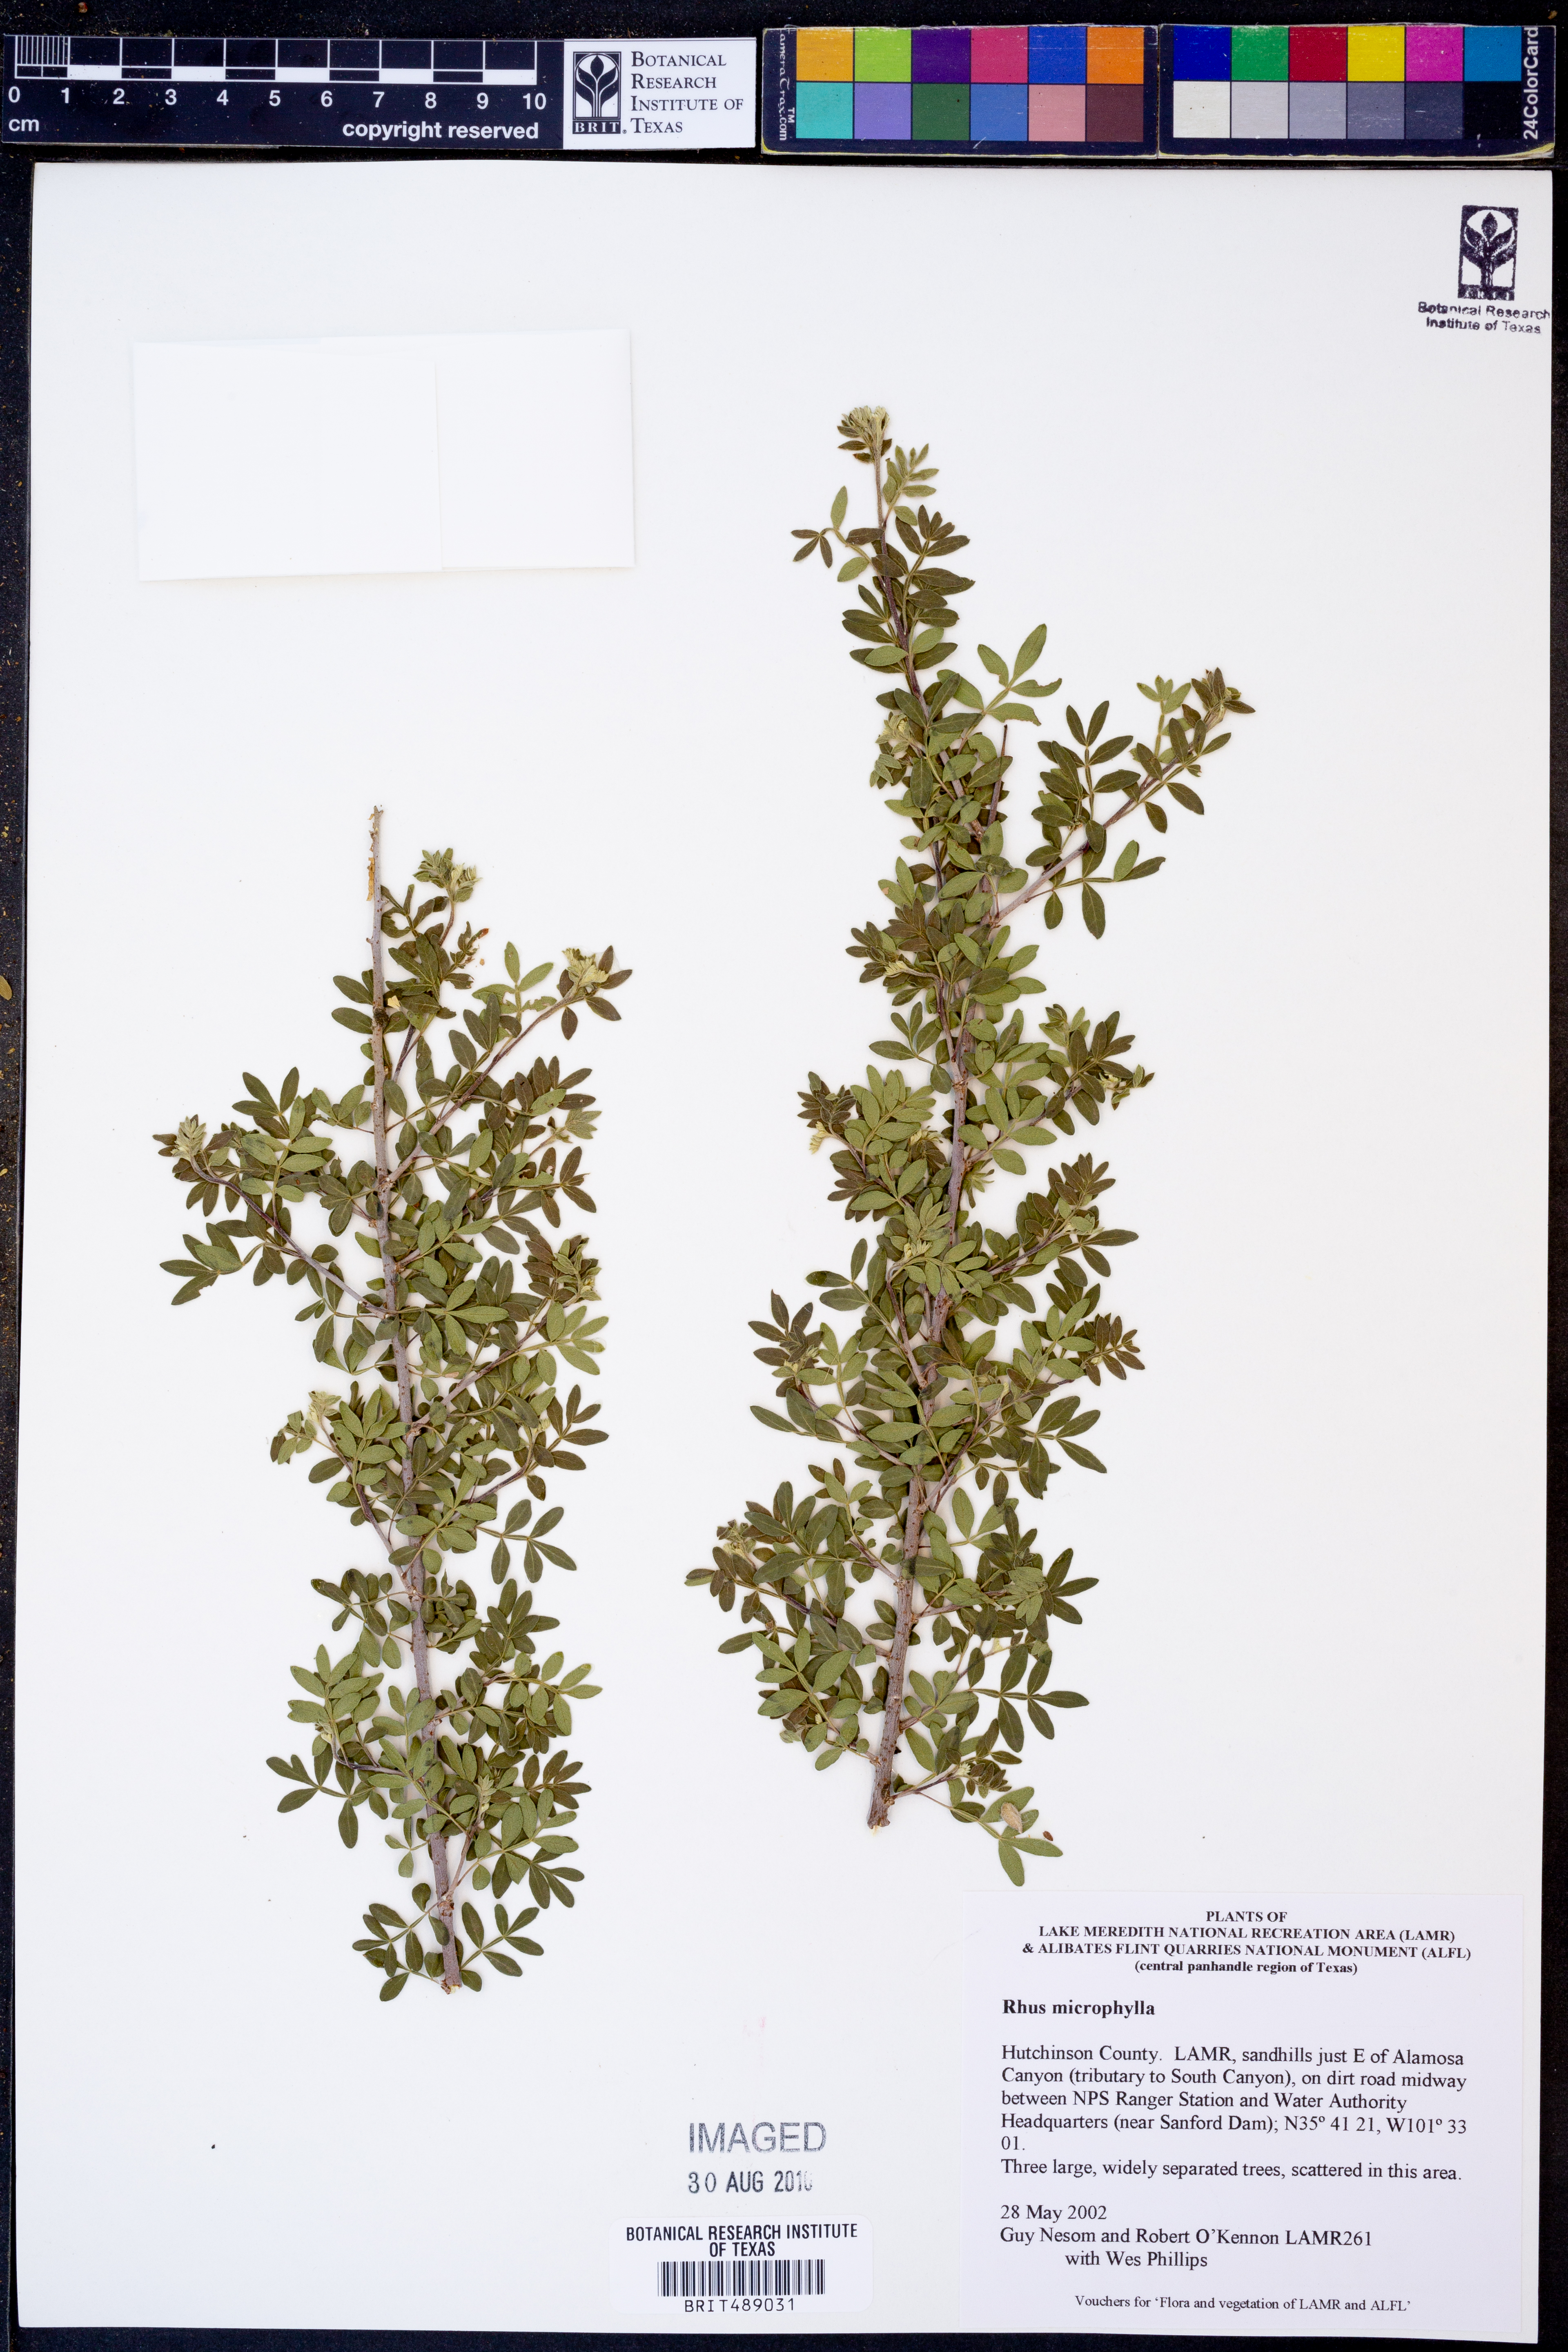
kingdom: Plantae
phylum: Tracheophyta
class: Magnoliopsida
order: Sapindales
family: Anacardiaceae
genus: Rhus
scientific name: Rhus microphylla
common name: Desert sumac
